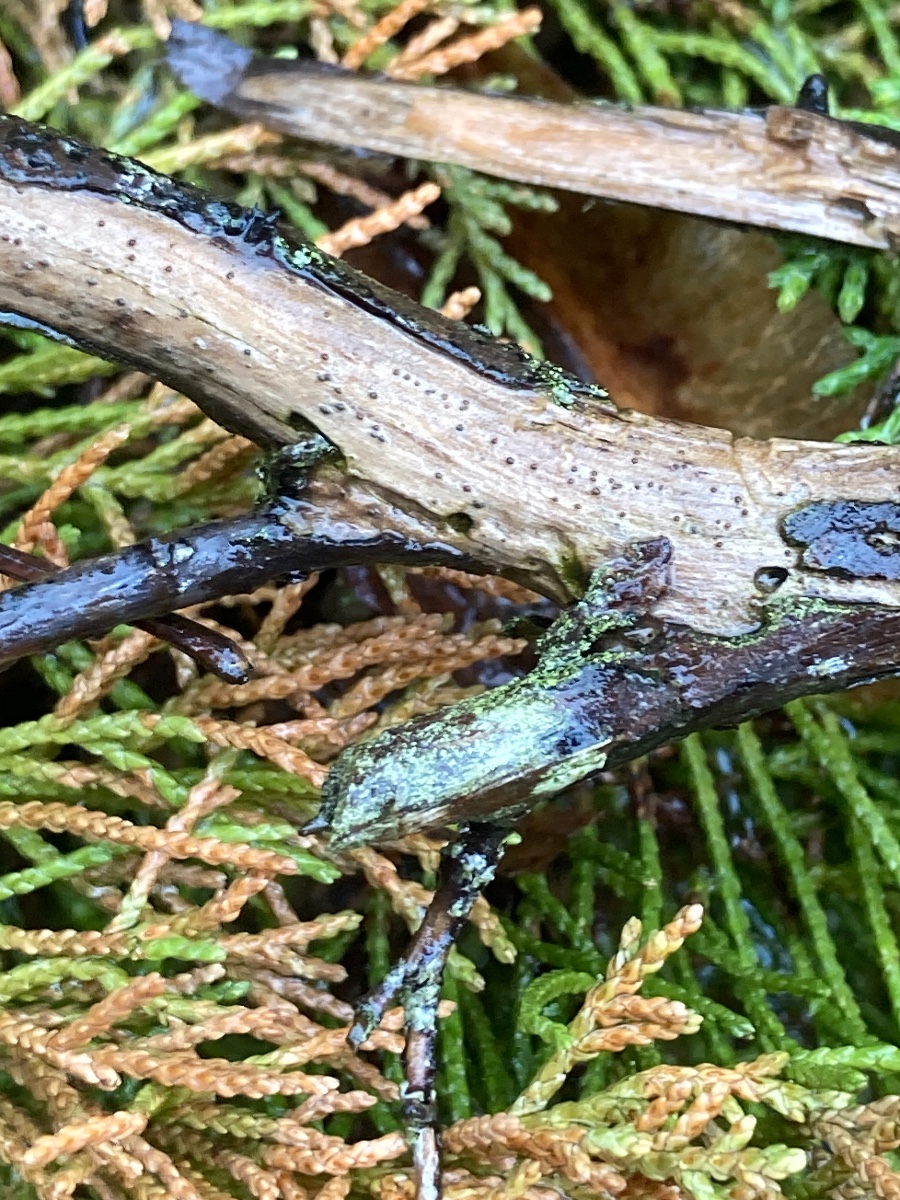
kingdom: Fungi
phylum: Ascomycota
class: Sordariomycetes
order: Xylariales
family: Hyponectriaceae
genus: Exarmidium
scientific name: Exarmidium inclusum
